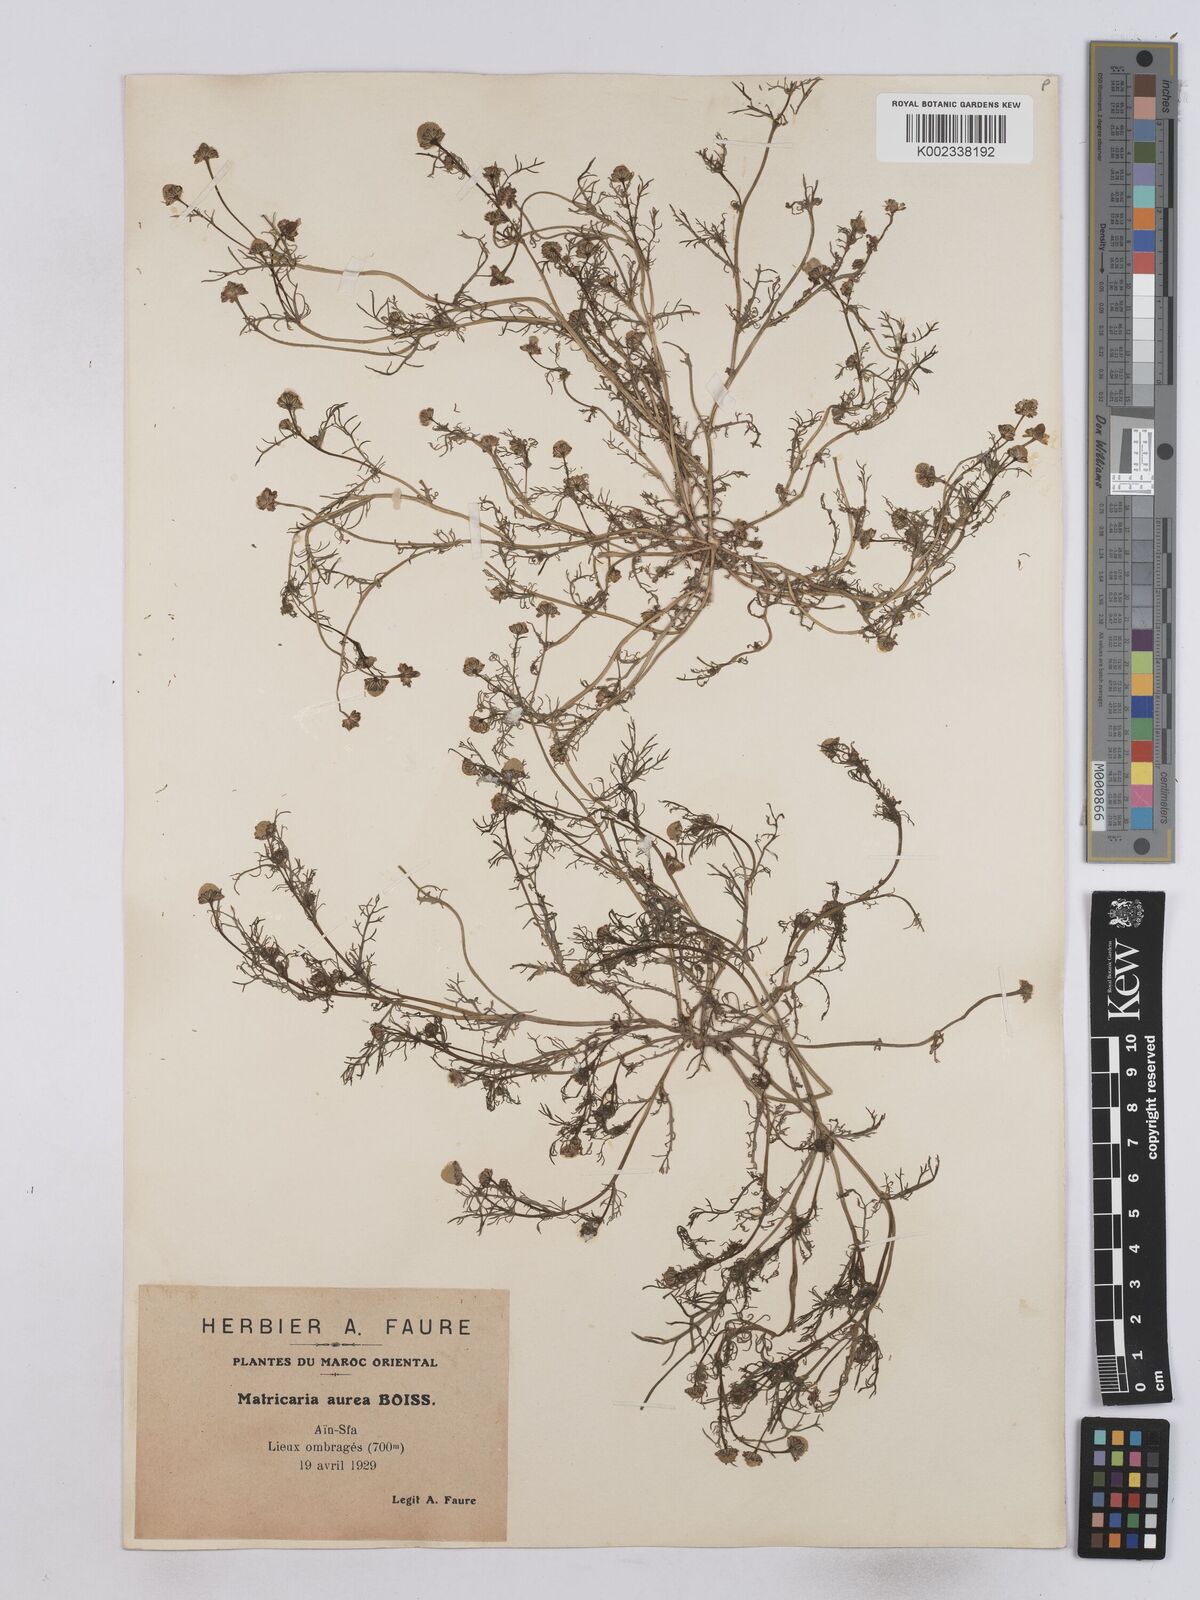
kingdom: Plantae
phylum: Tracheophyta
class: Magnoliopsida
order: Asterales
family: Asteraceae
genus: Matricaria
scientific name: Matricaria aurea
